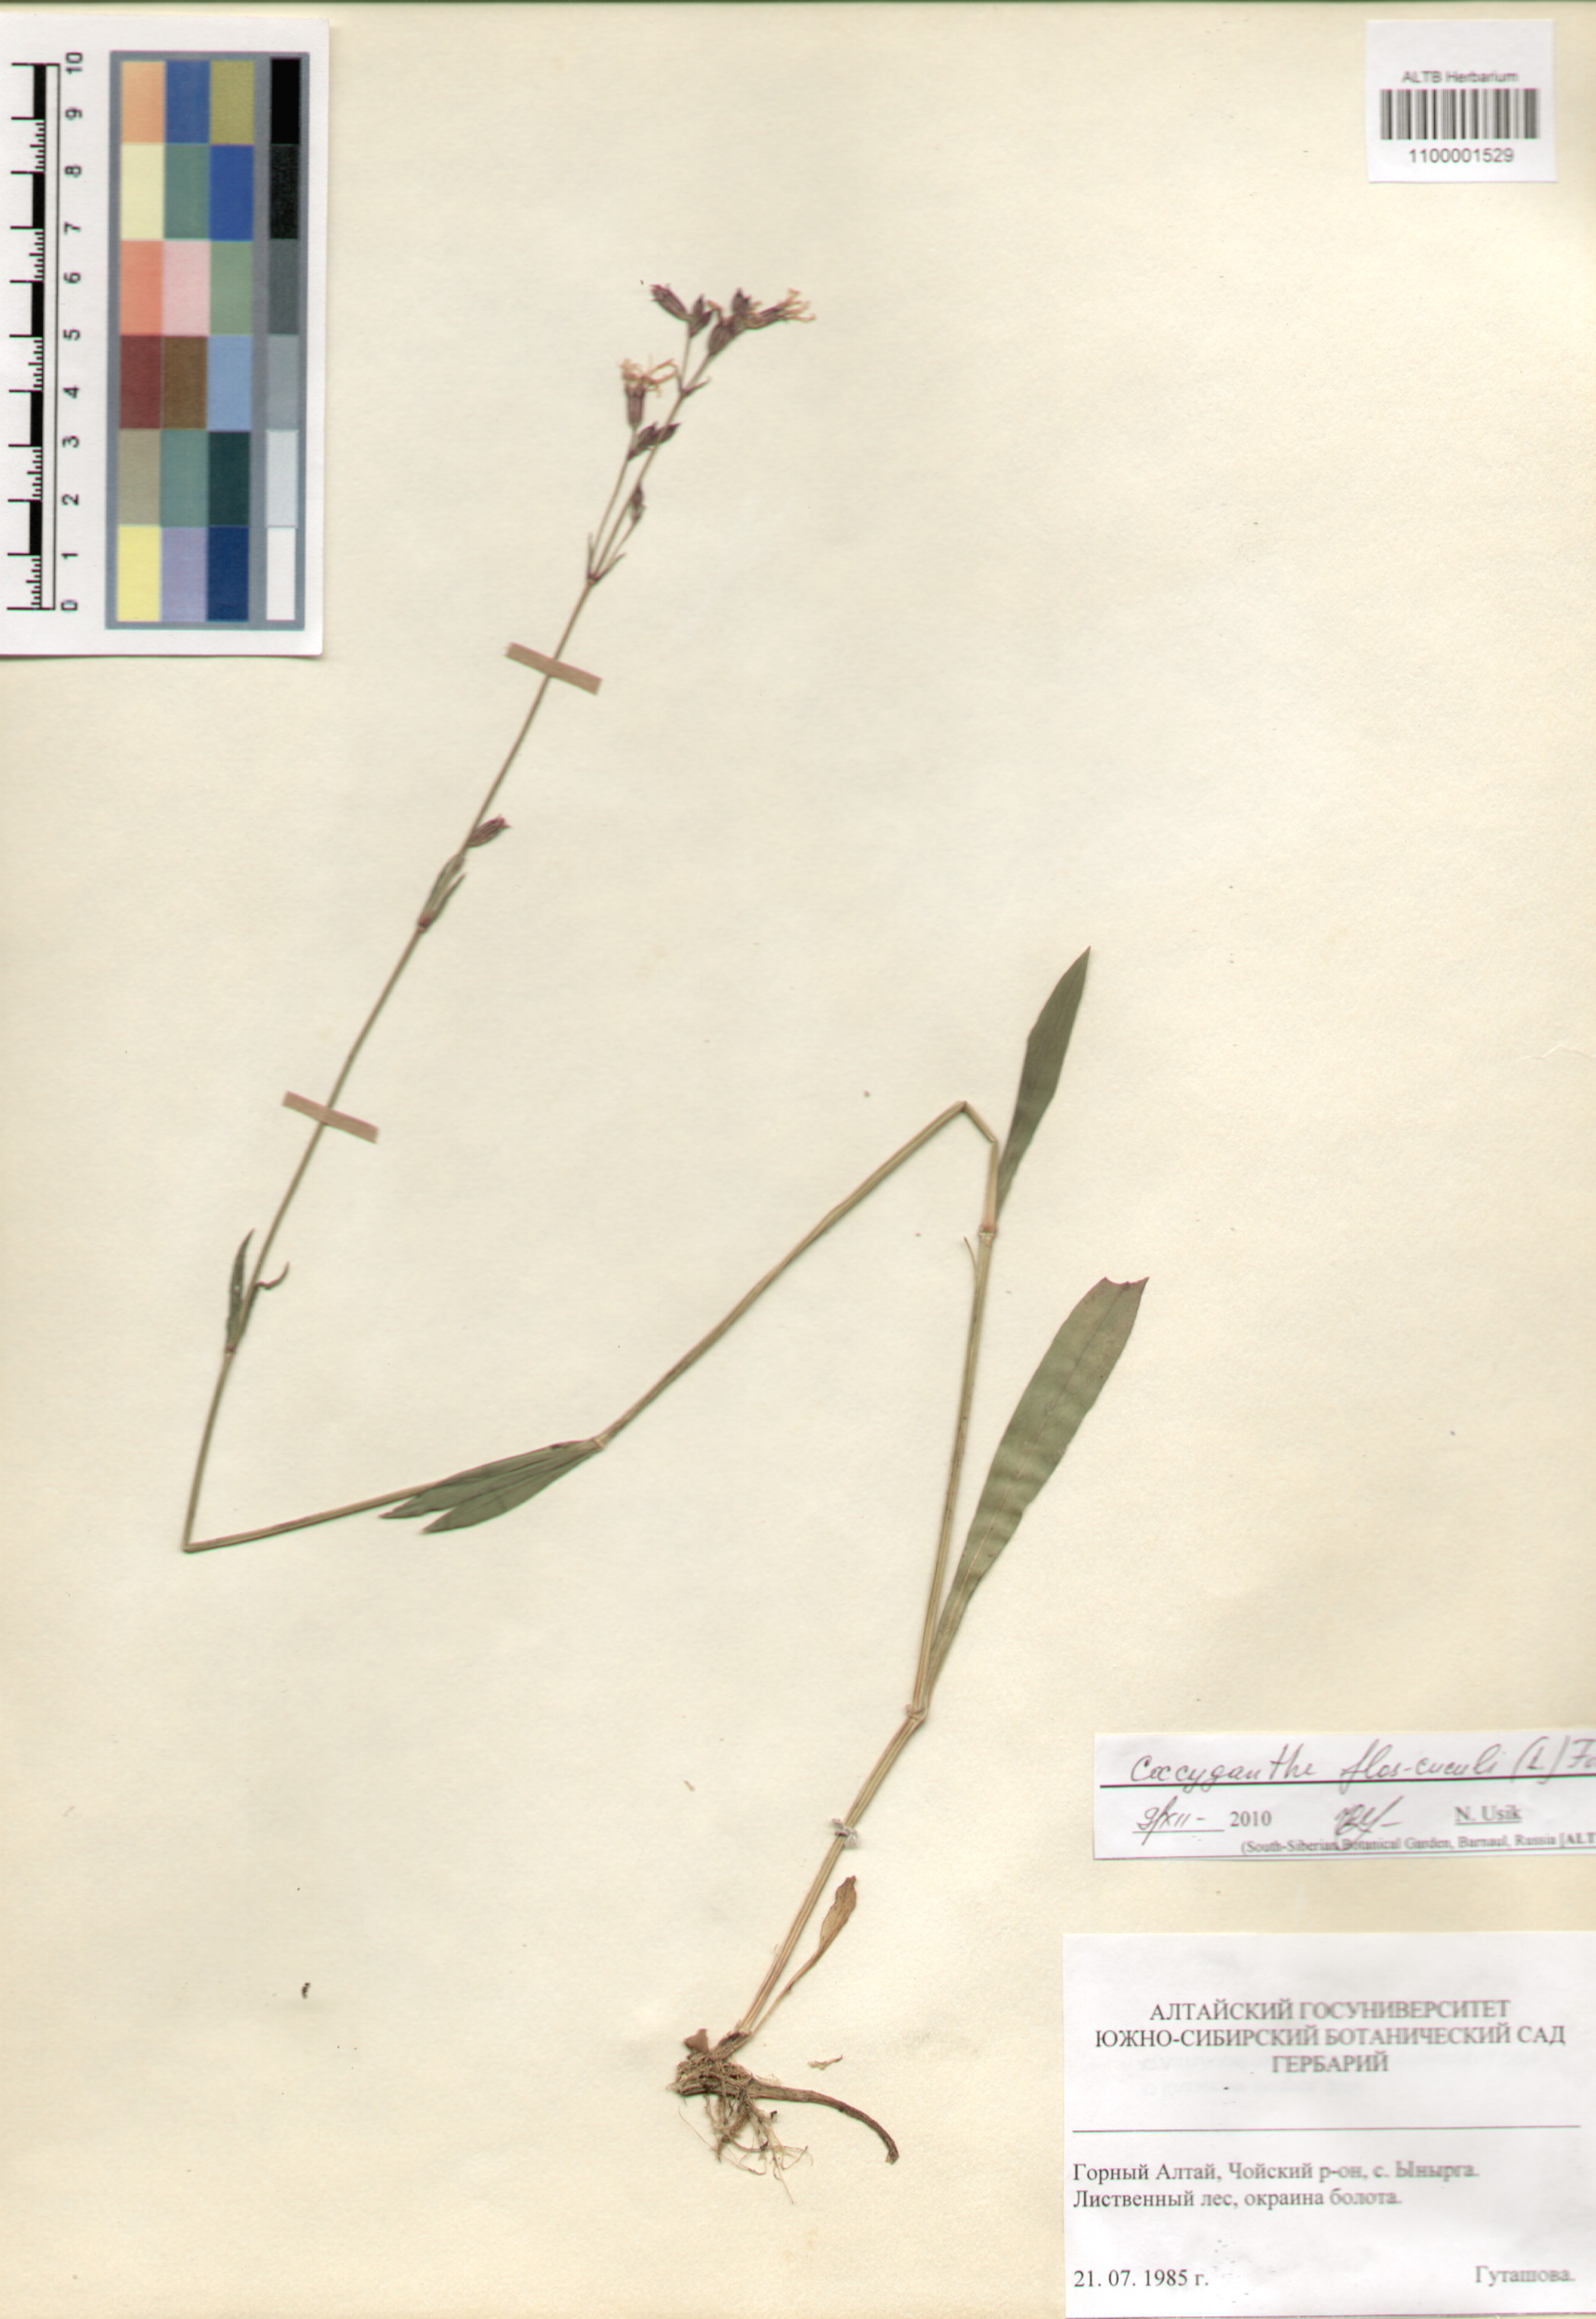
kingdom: Plantae
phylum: Tracheophyta
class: Magnoliopsida
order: Caryophyllales
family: Caryophyllaceae
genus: Silene
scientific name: Silene flos-cuculi
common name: Ragged-robin
